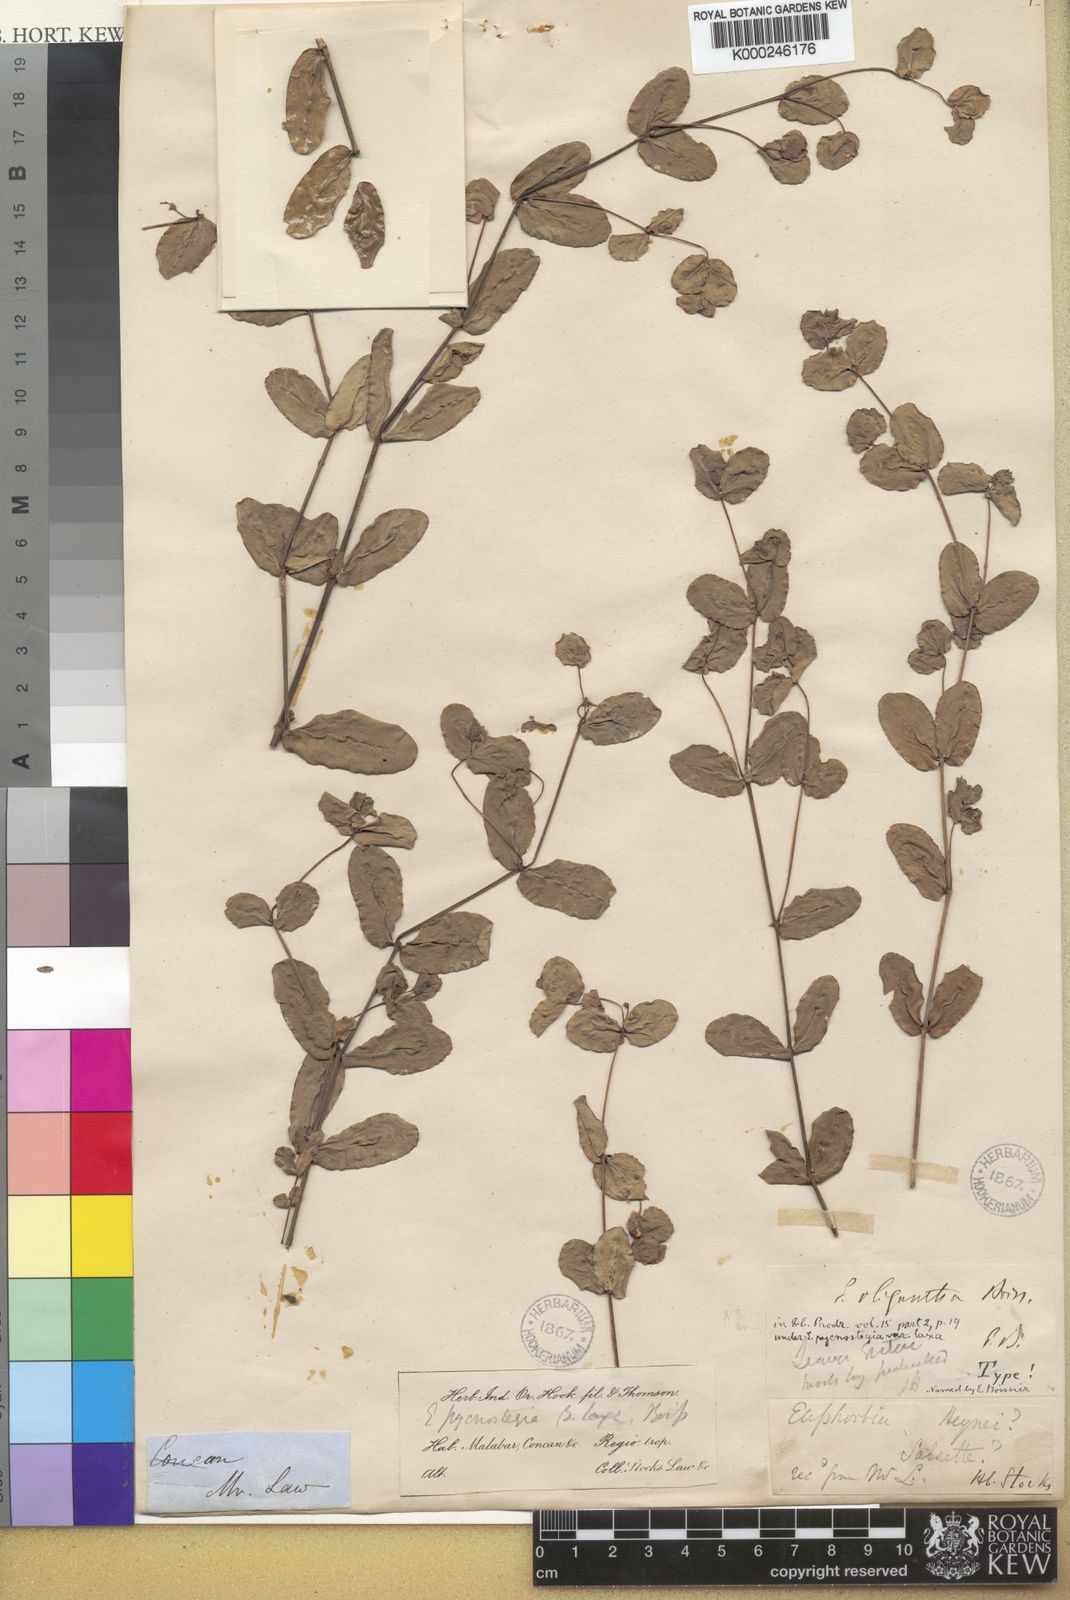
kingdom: Plantae
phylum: Tracheophyta
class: Magnoliopsida
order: Malpighiales
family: Euphorbiaceae
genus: Euphorbia
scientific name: Euphorbia erythroclada
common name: Dhudheri
